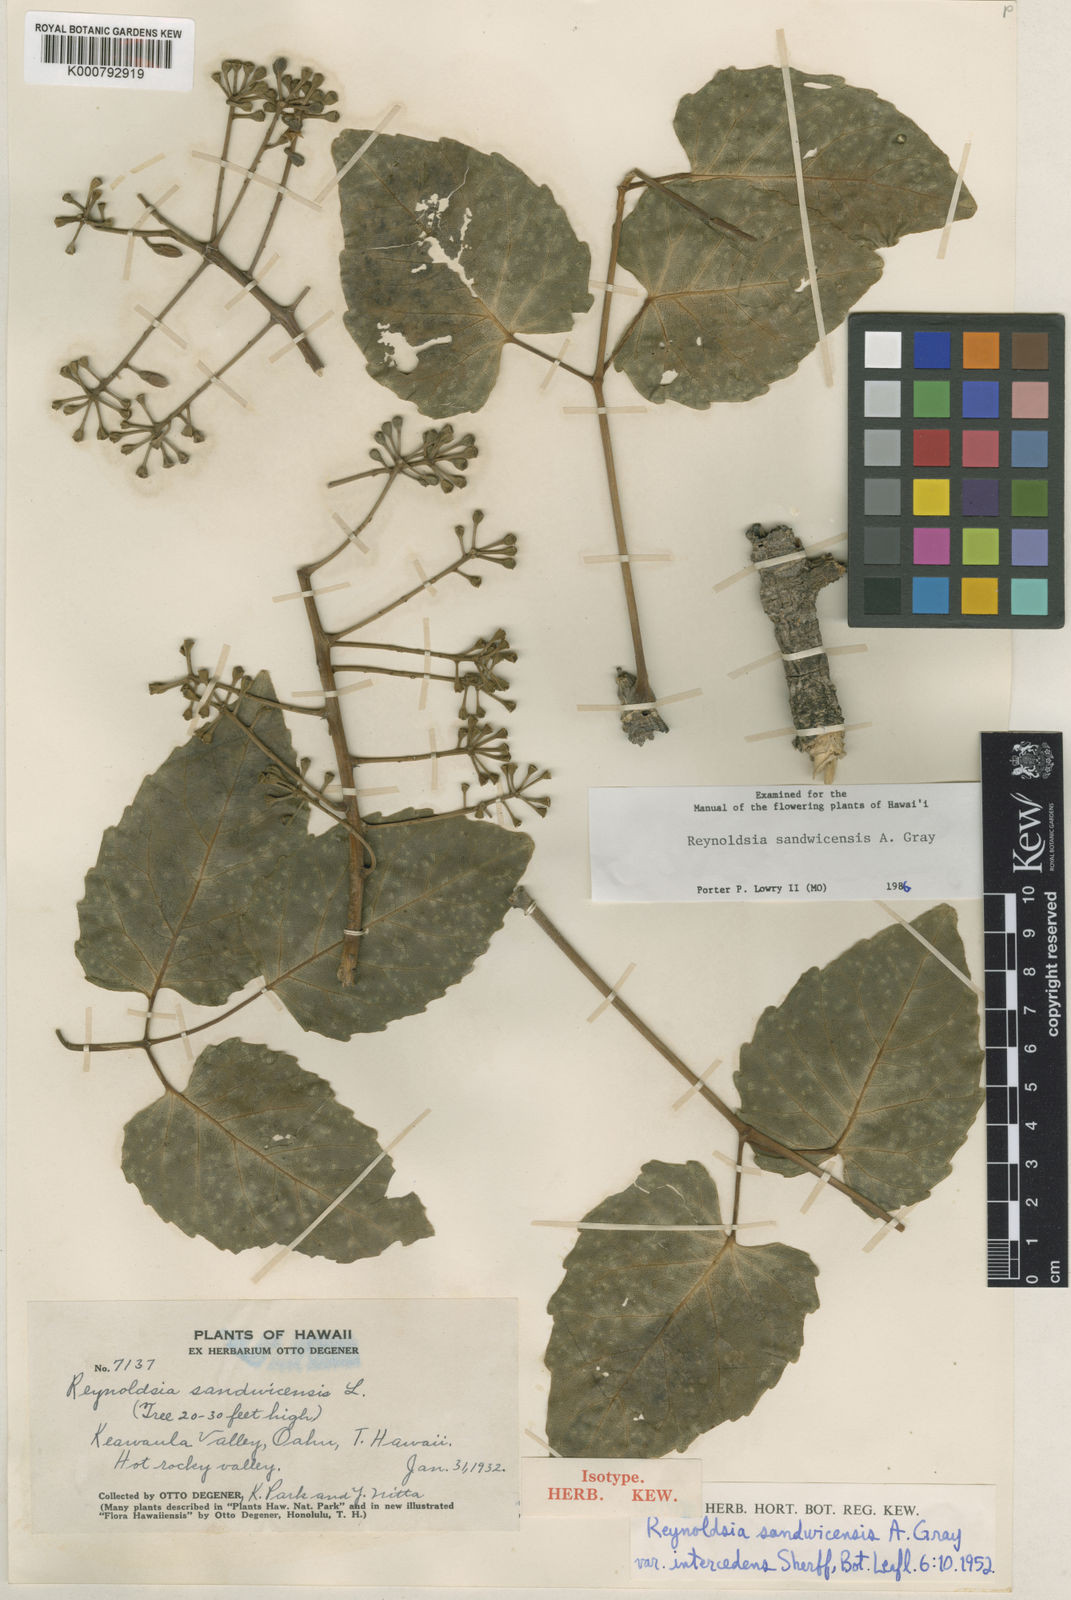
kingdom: Plantae
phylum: Tracheophyta
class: Magnoliopsida
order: Apiales
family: Araliaceae
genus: Polyscias
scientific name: Polyscias sandwicensis
